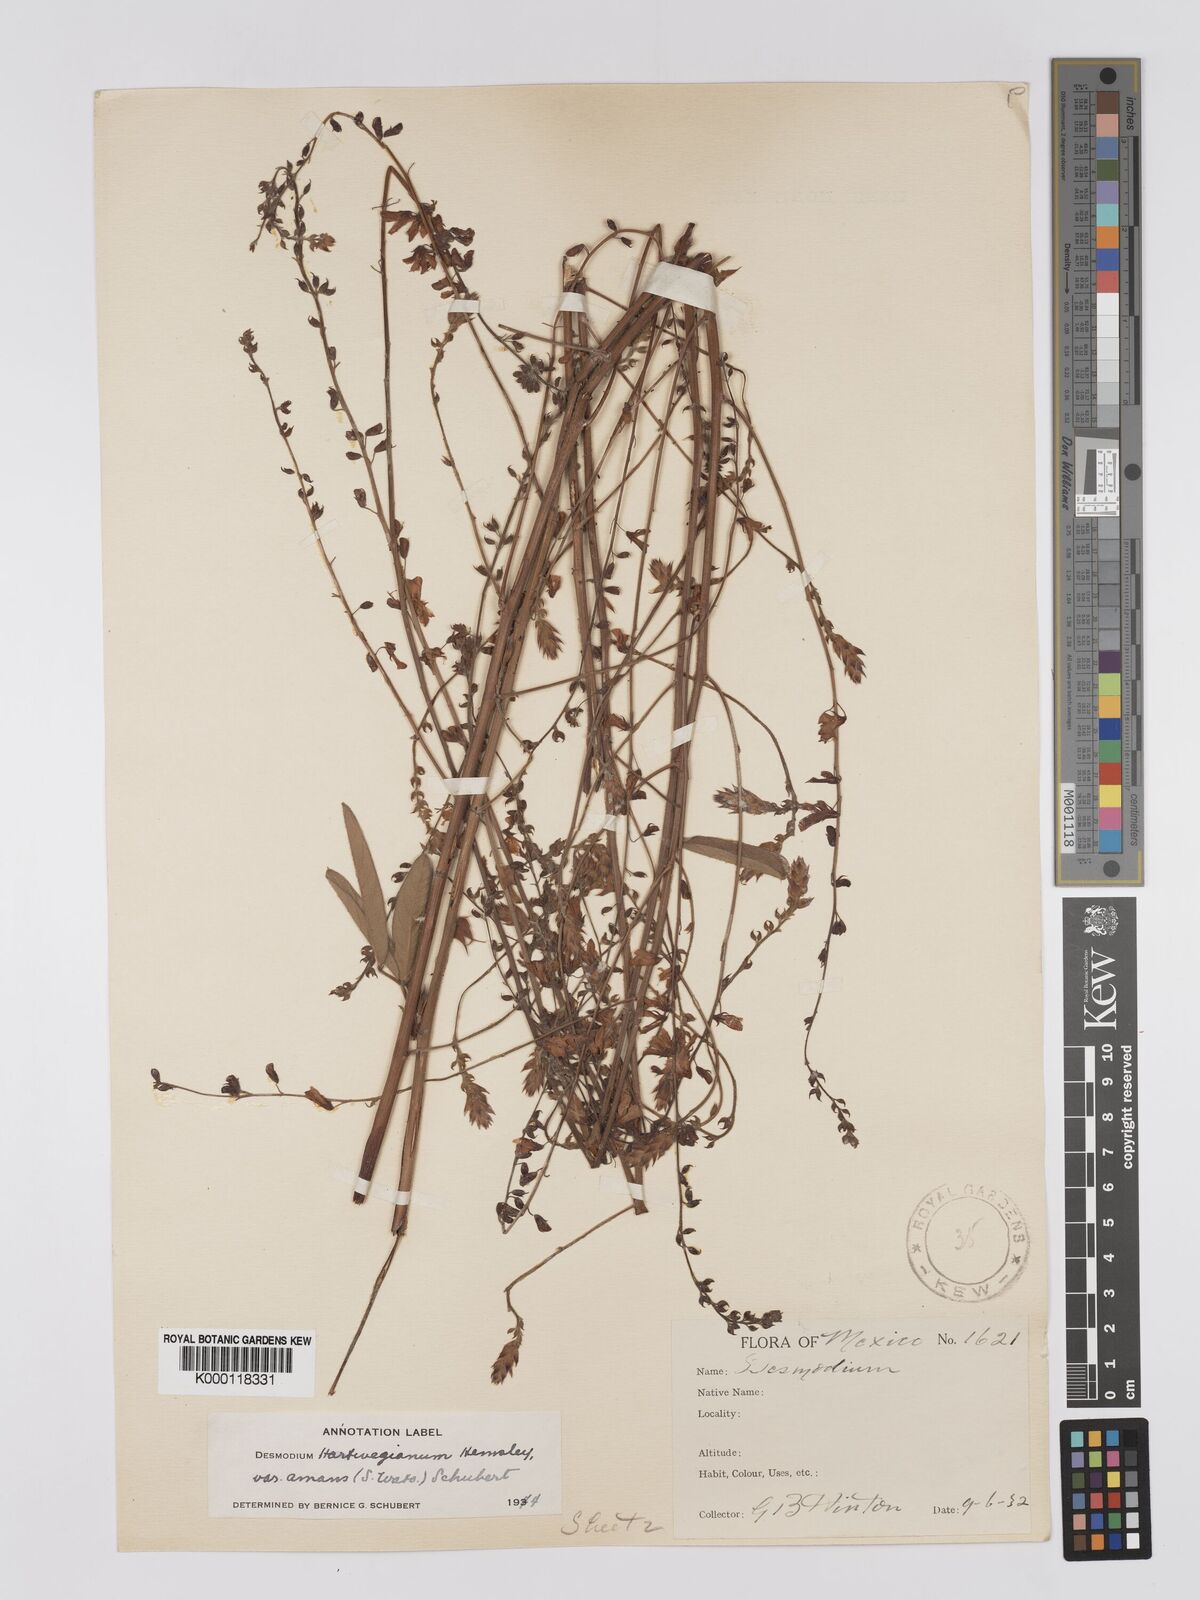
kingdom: Plantae
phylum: Tracheophyta
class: Magnoliopsida
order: Fabales
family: Fabaceae
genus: Desmodium
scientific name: Desmodium hartwegianum
